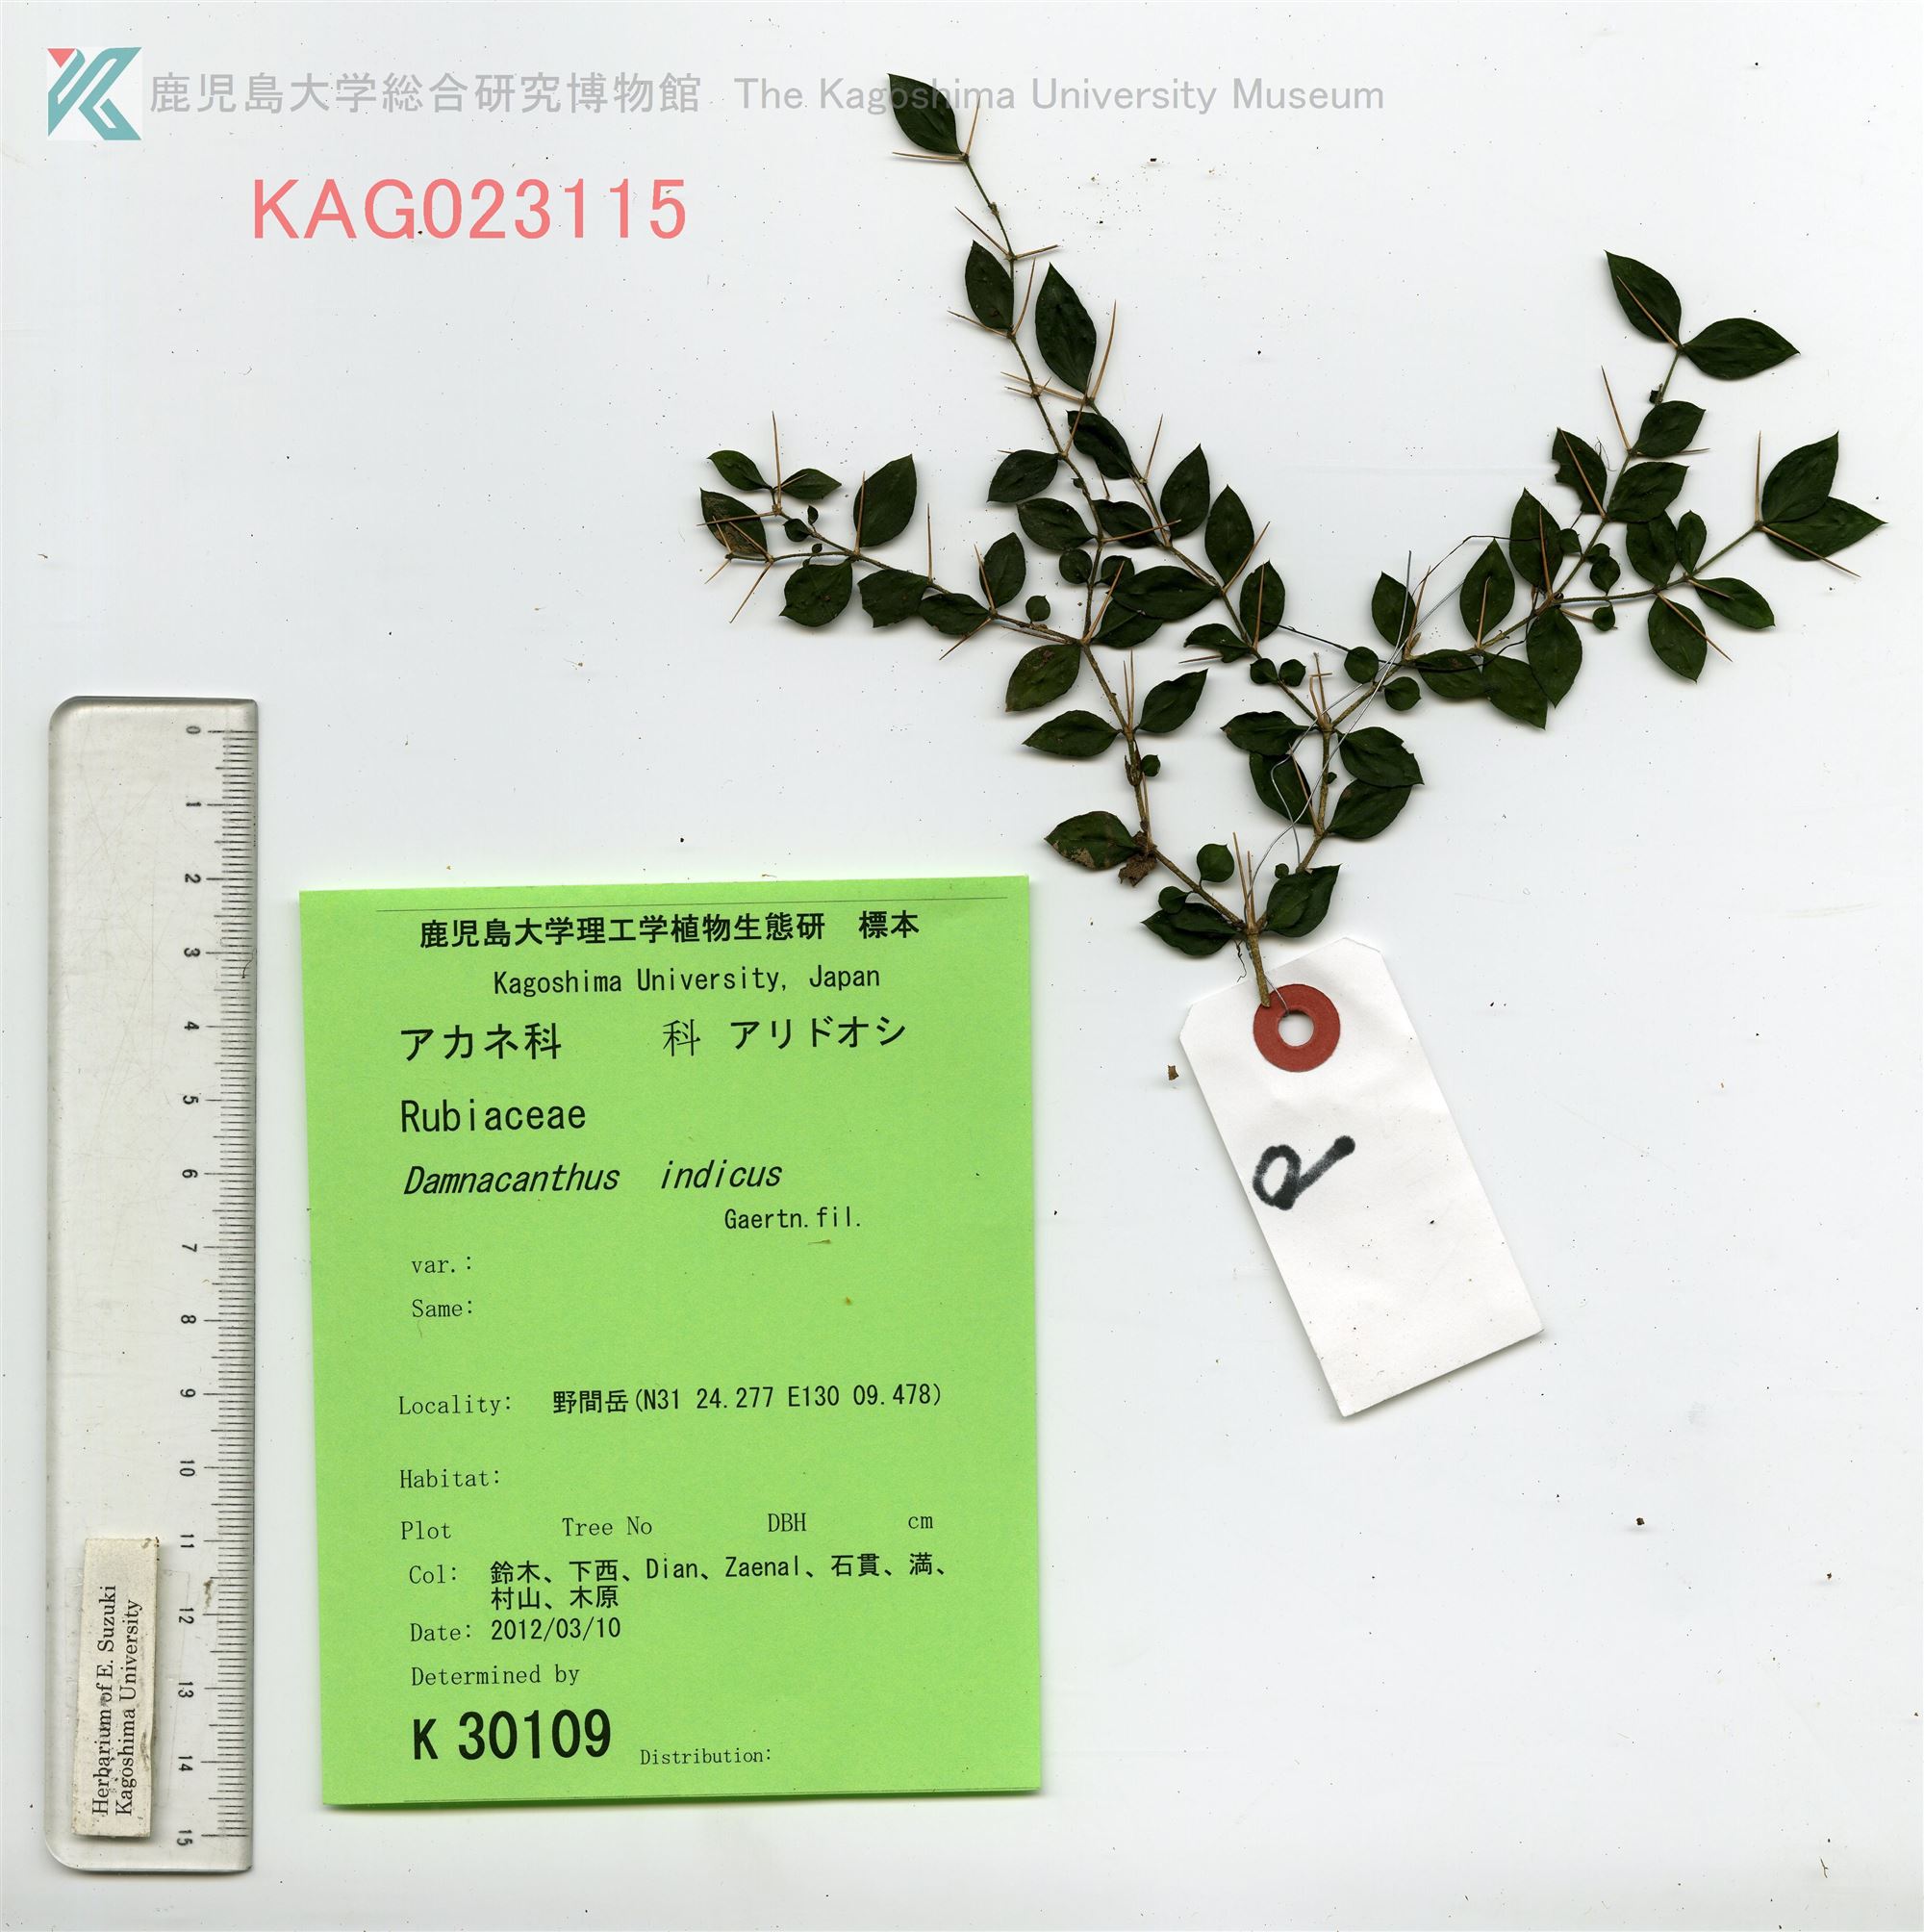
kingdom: Plantae
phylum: Tracheophyta
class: Magnoliopsida
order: Gentianales
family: Rubiaceae
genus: Damnacanthus
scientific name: Damnacanthus indicus
